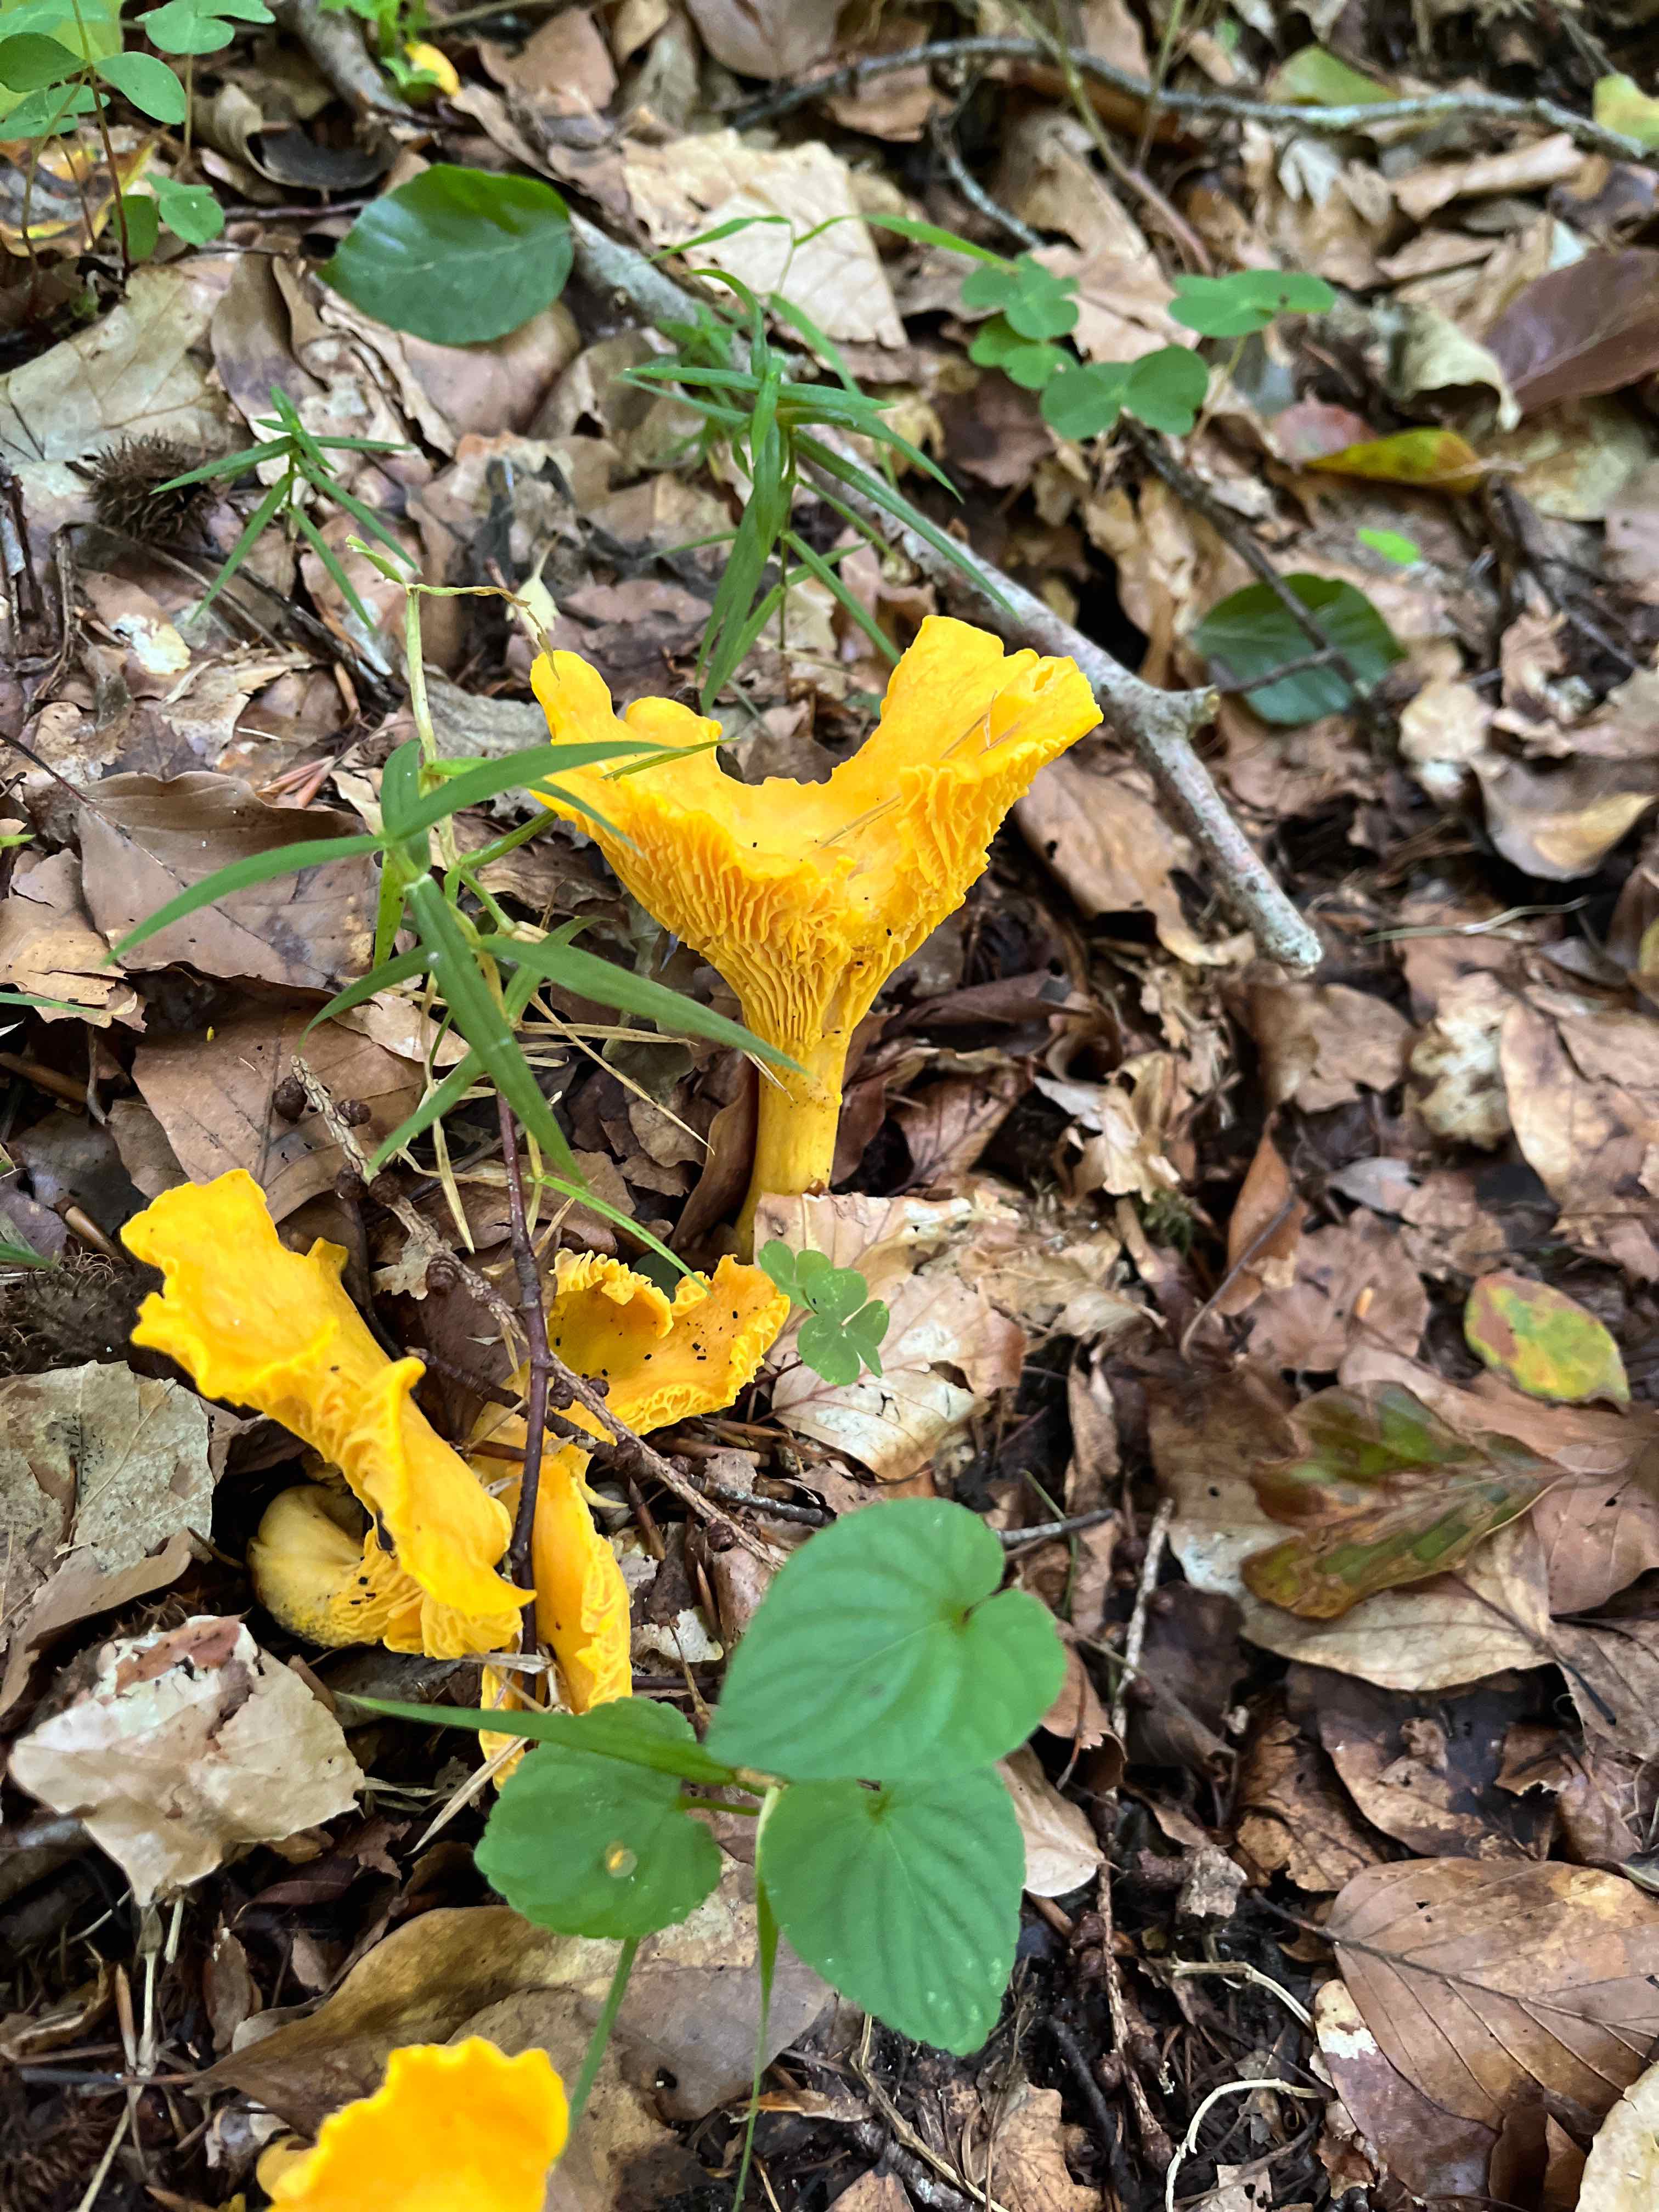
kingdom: Fungi
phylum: Basidiomycota
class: Agaricomycetes
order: Cantharellales
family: Hydnaceae
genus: Cantharellus
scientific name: Cantharellus cibarius
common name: almindelig kantarel
